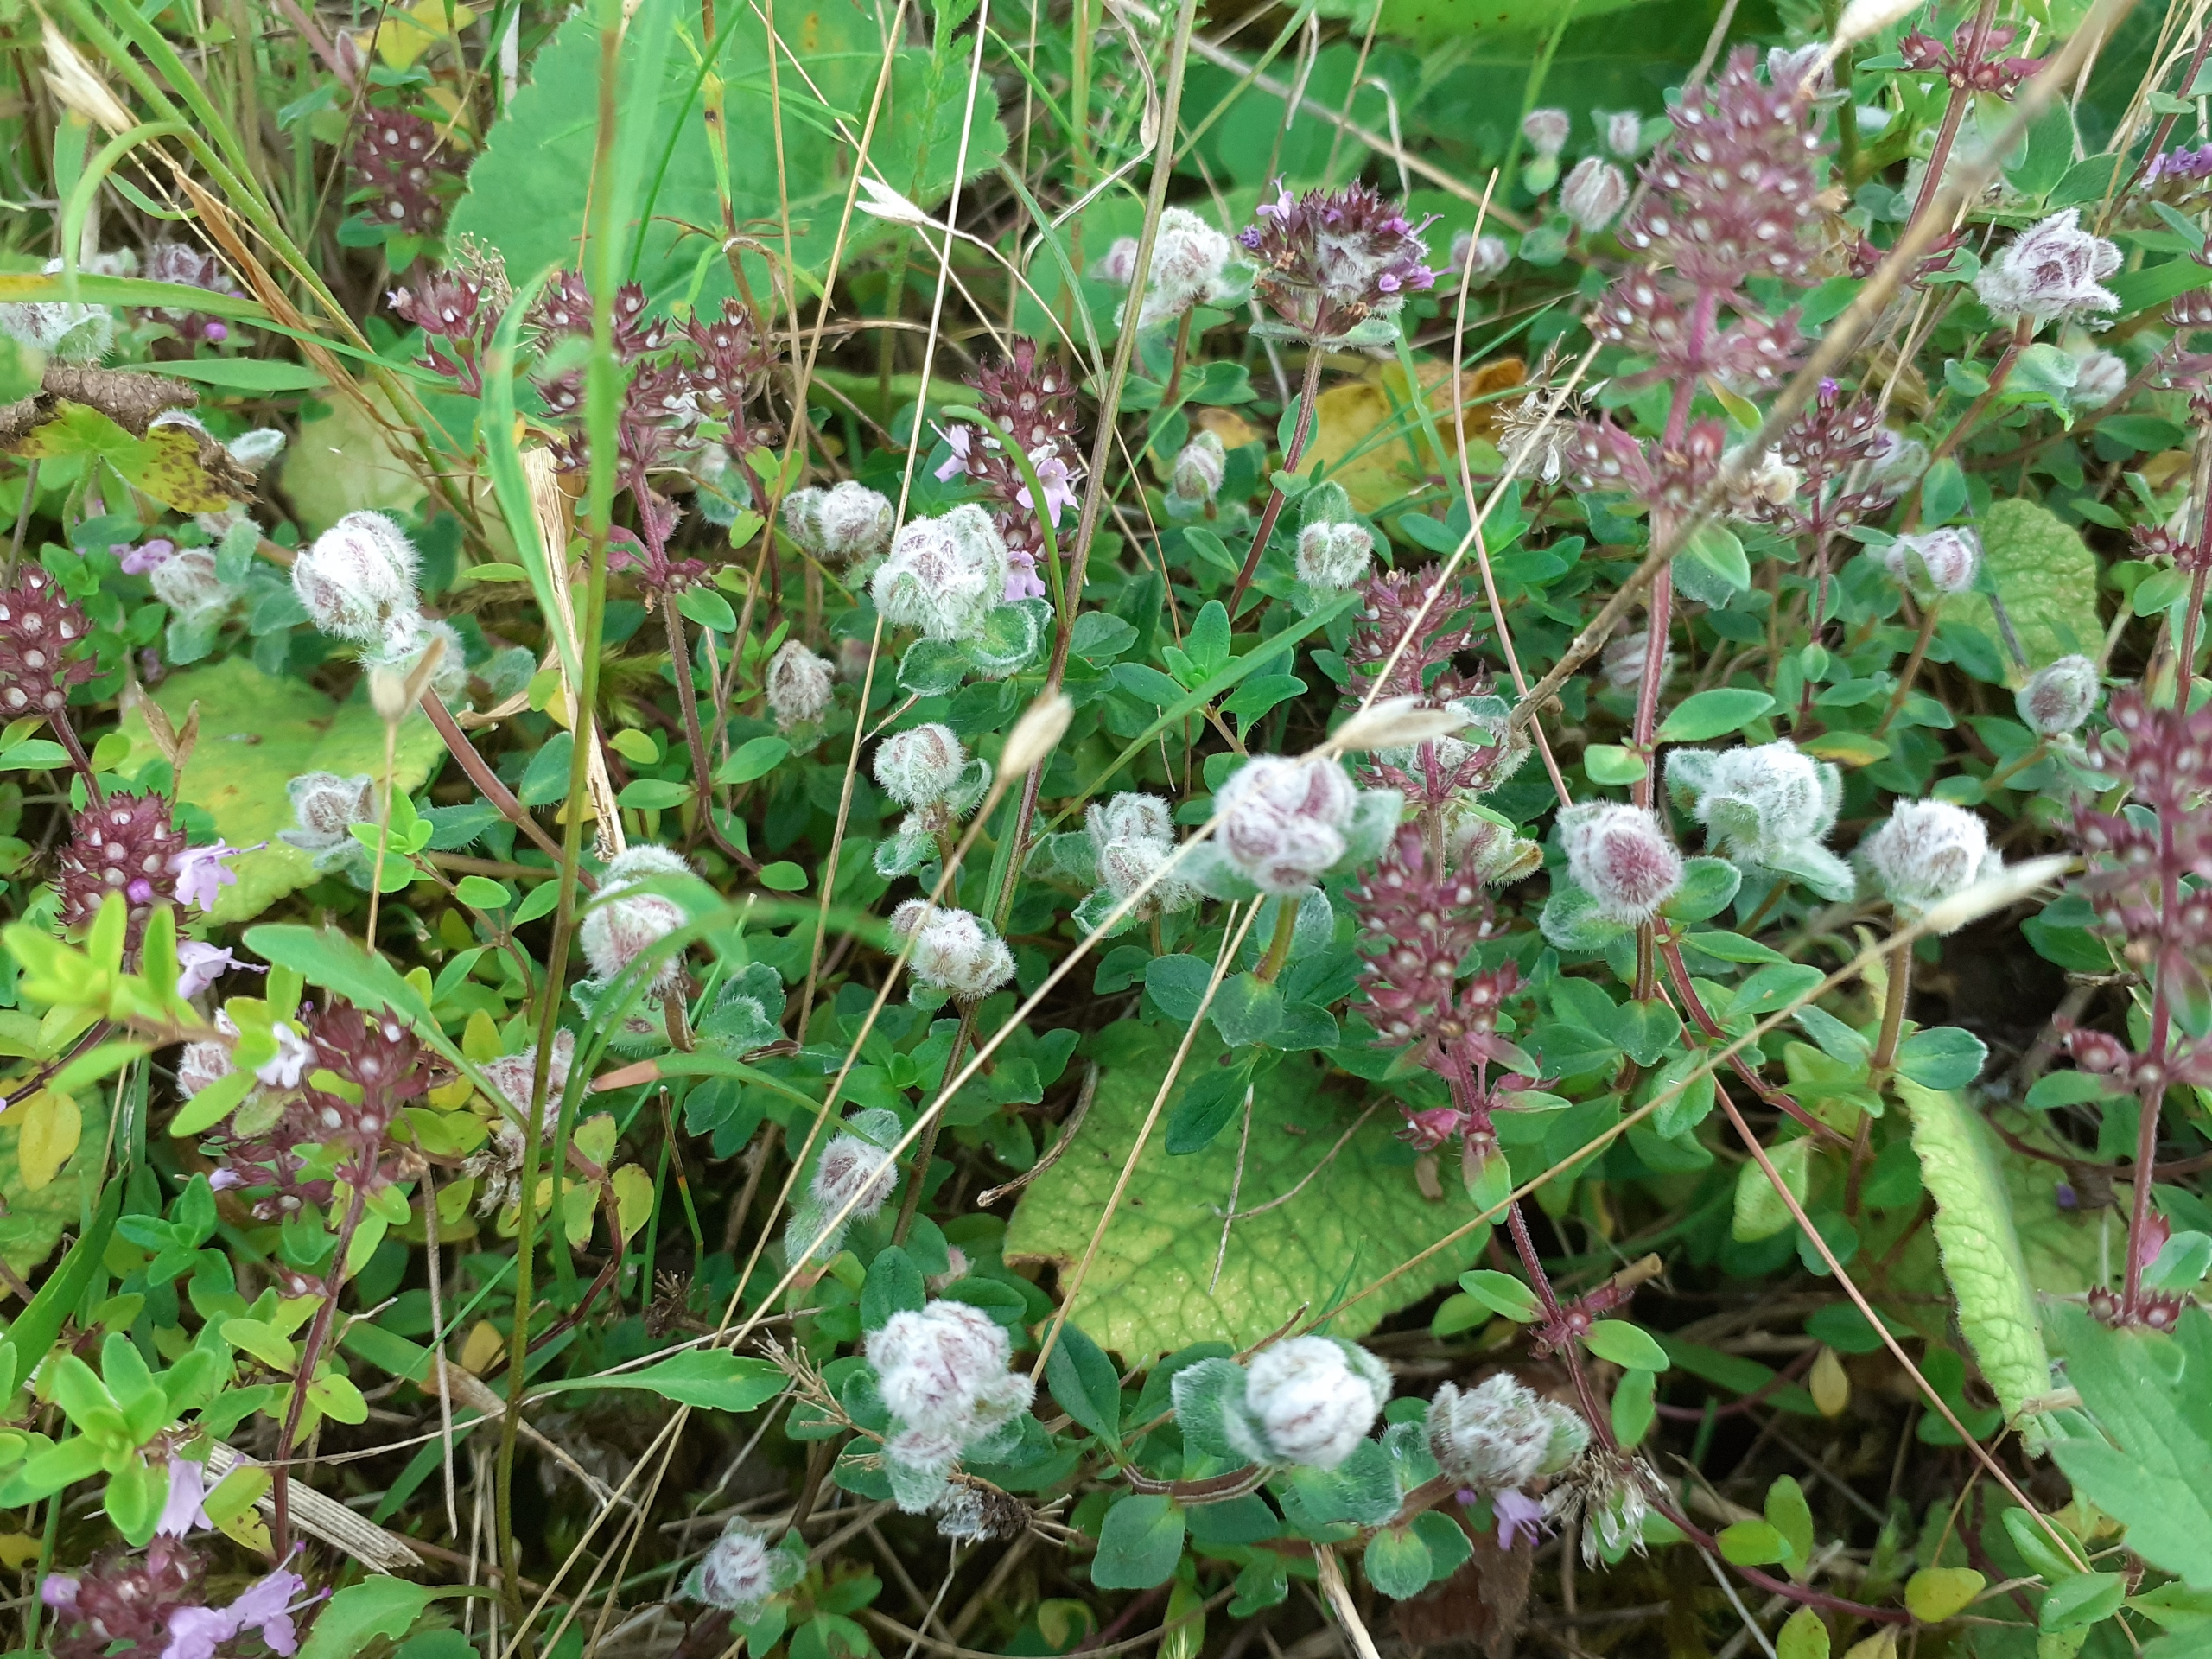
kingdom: Animalia
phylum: Arthropoda
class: Arachnida
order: Trombidiformes
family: Eriophyidae
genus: Aceria
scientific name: Aceria thomasi
